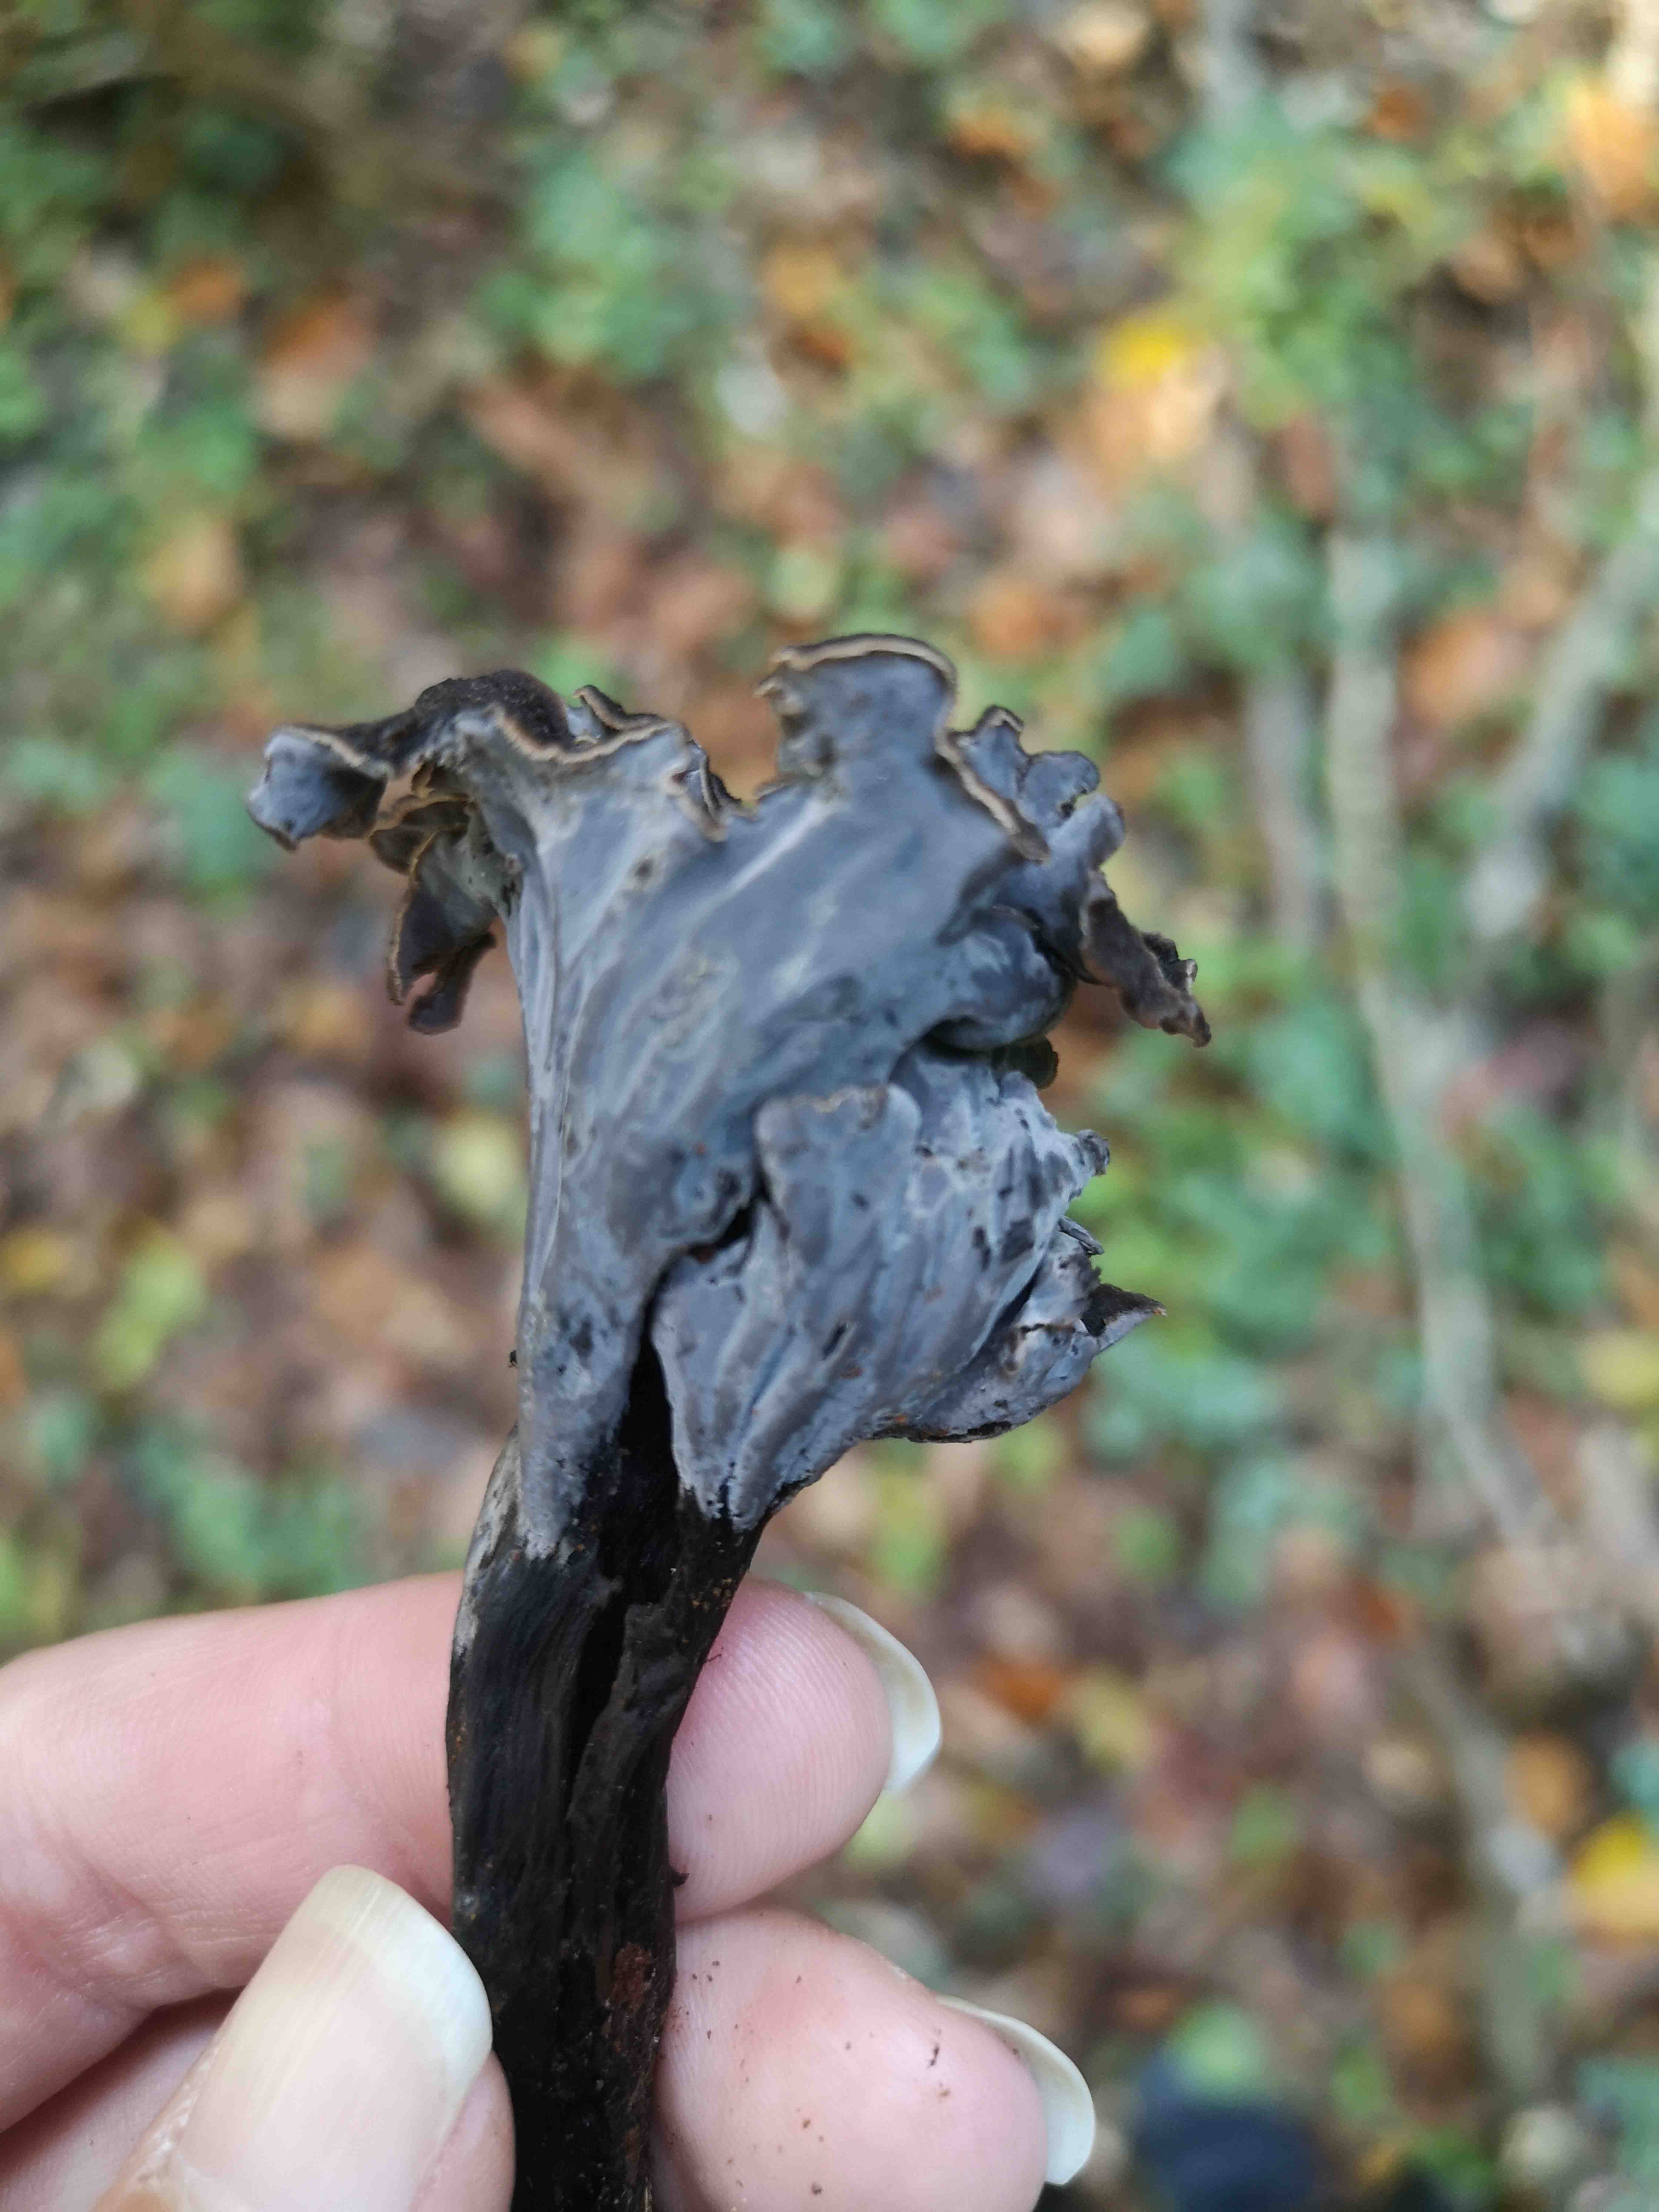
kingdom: Fungi
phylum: Basidiomycota
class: Agaricomycetes
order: Cantharellales
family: Hydnaceae
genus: Craterellus
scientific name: Craterellus cornucopioides
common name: trompetsvamp
